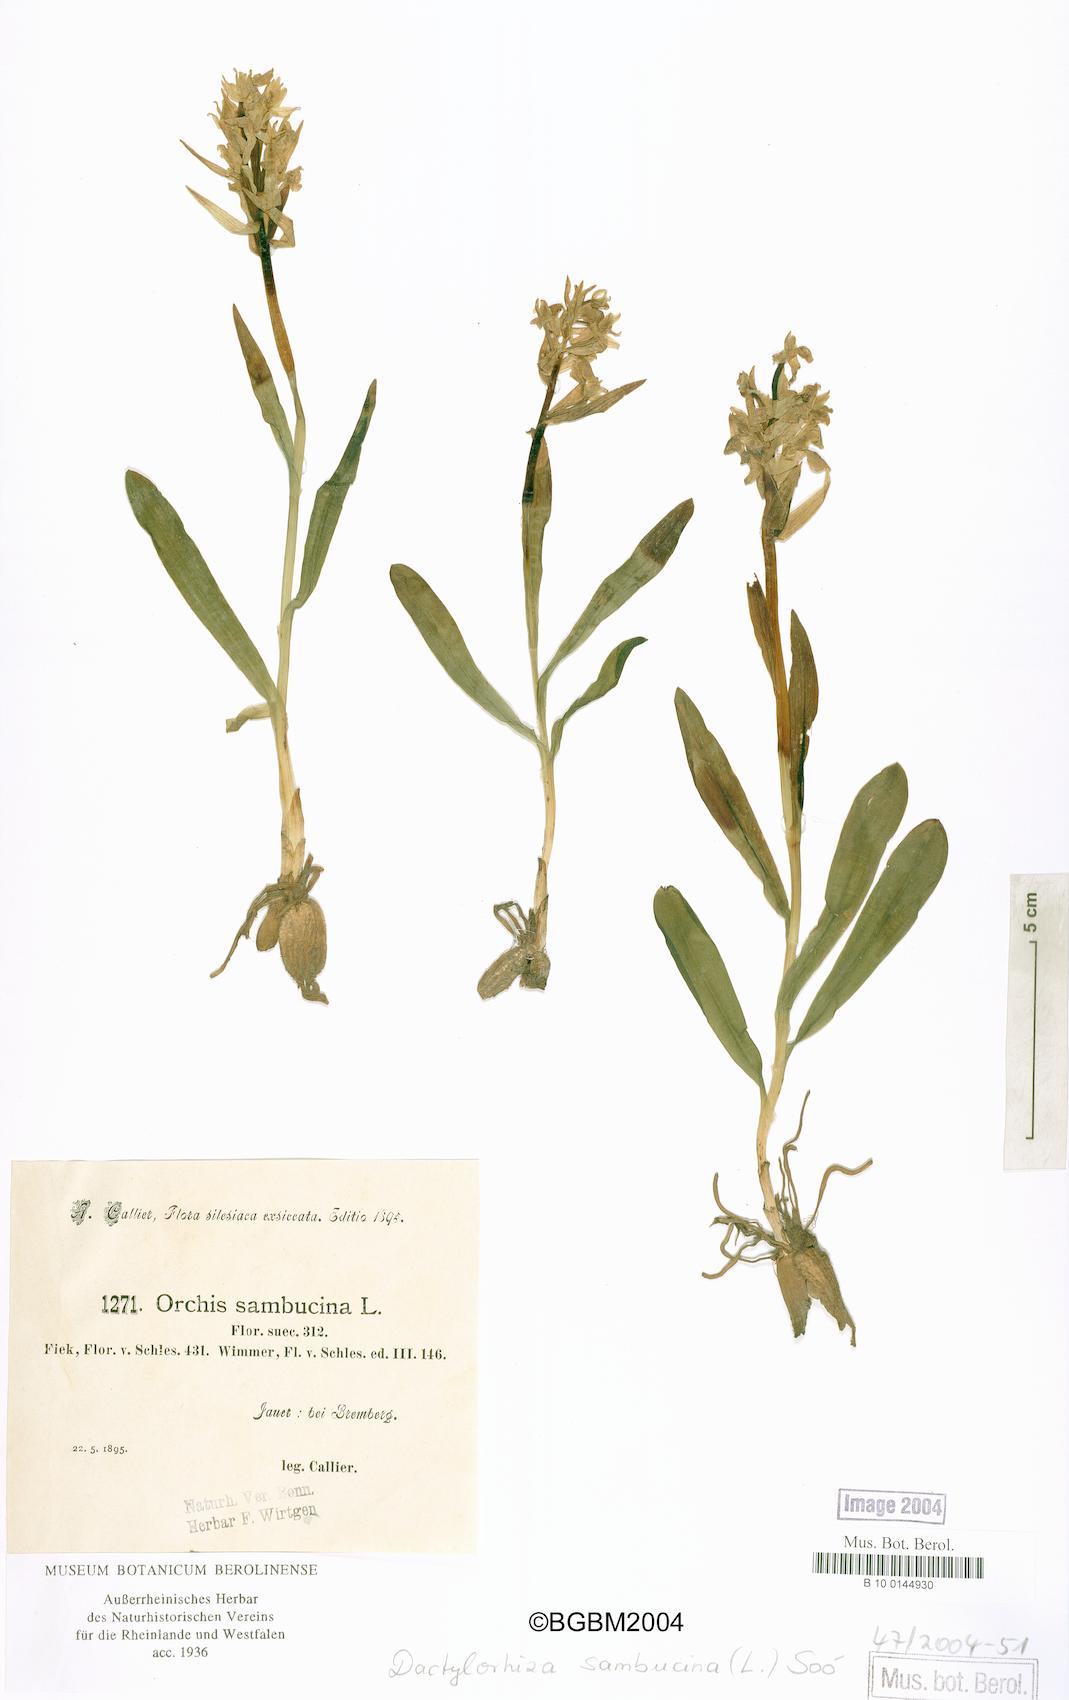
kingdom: Plantae
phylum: Tracheophyta
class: Liliopsida
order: Asparagales
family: Orchidaceae
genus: Dactylorhiza
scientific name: Dactylorhiza sambucina
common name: Elder-flowered orchid
